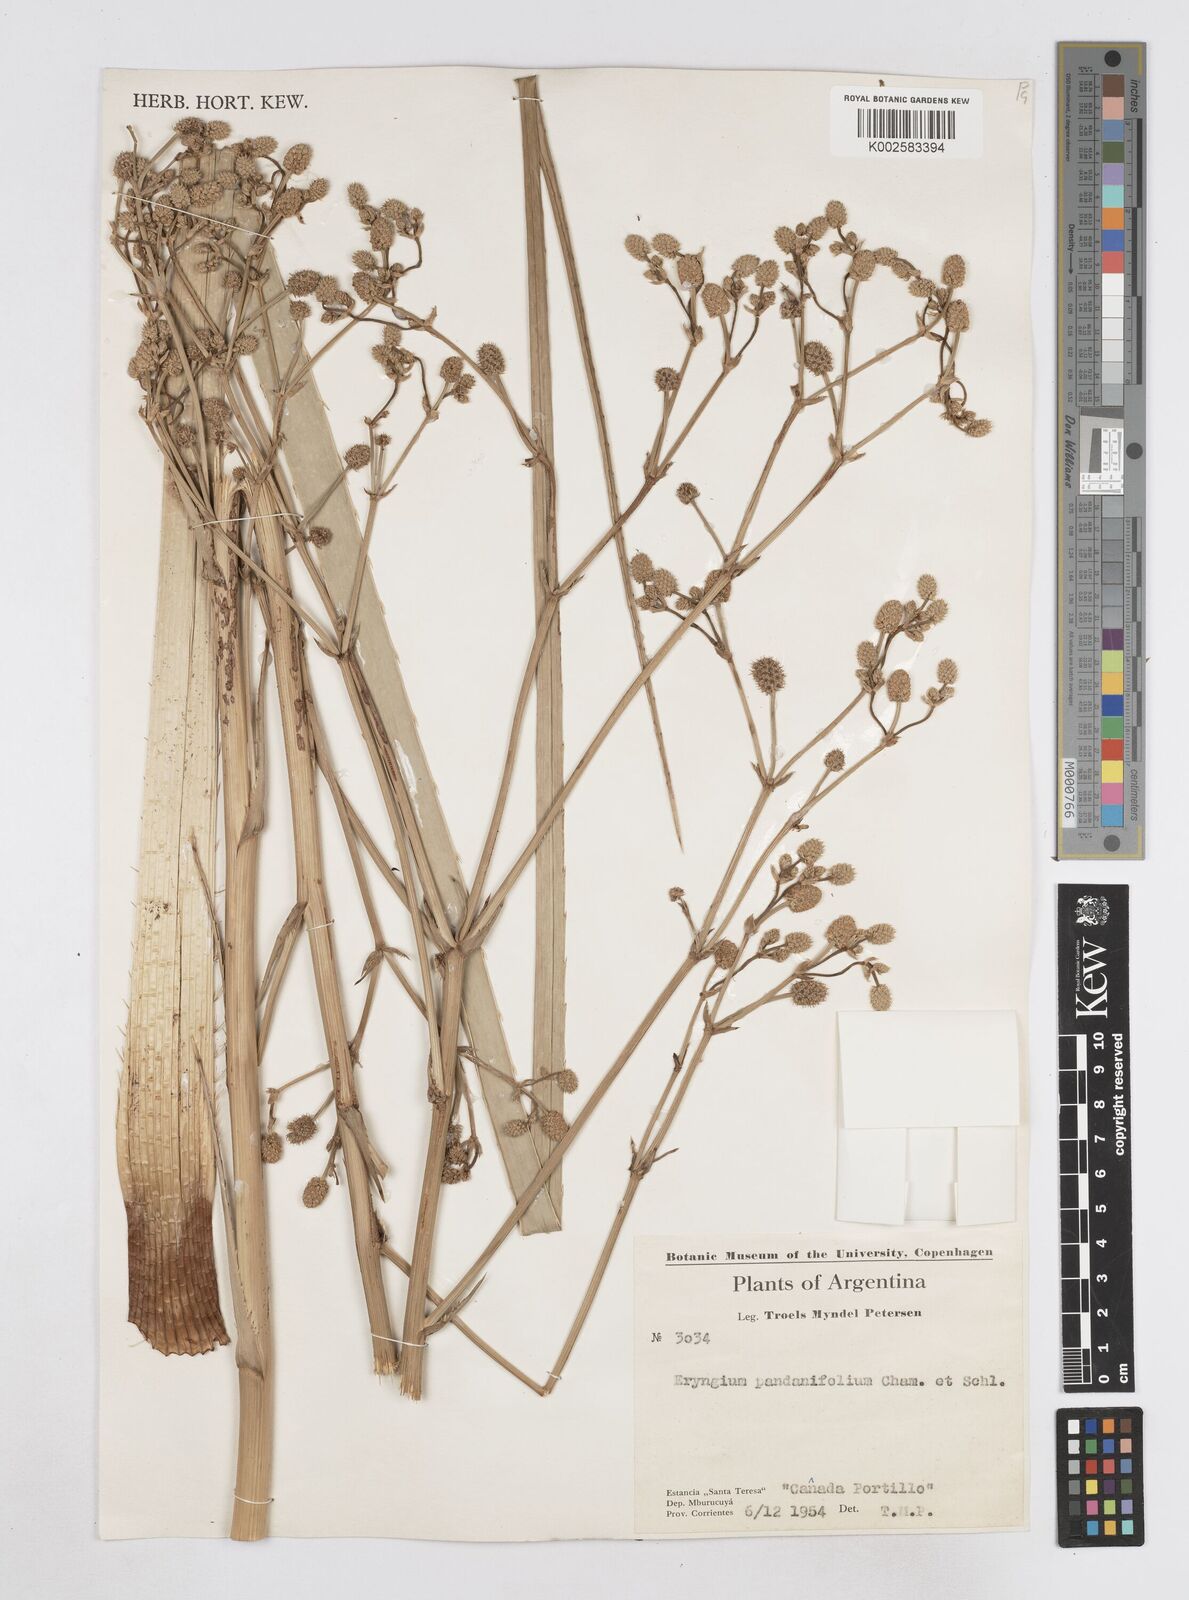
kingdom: Plantae
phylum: Tracheophyta
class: Magnoliopsida
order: Apiales
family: Apiaceae
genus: Eryngium
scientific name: Eryngium pandanifolium
